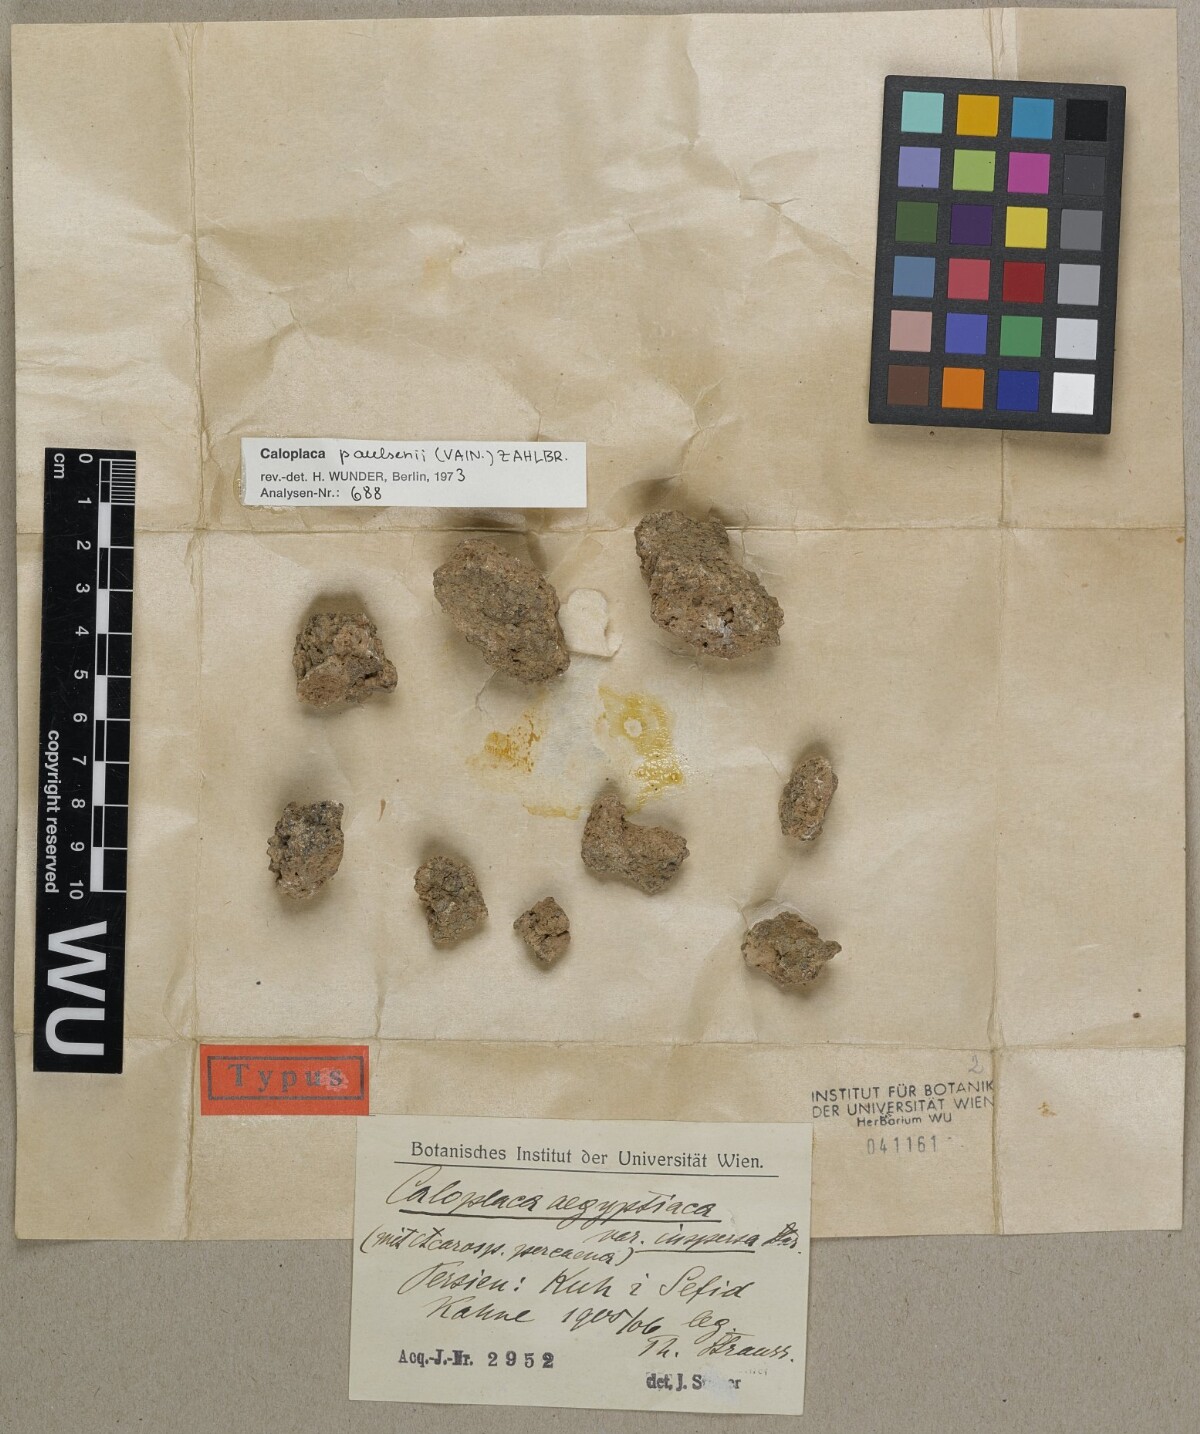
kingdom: Fungi
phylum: Ascomycota
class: Lecanoromycetes
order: Teloschistales
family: Teloschistaceae
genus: Caloplaca
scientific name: Caloplaca
